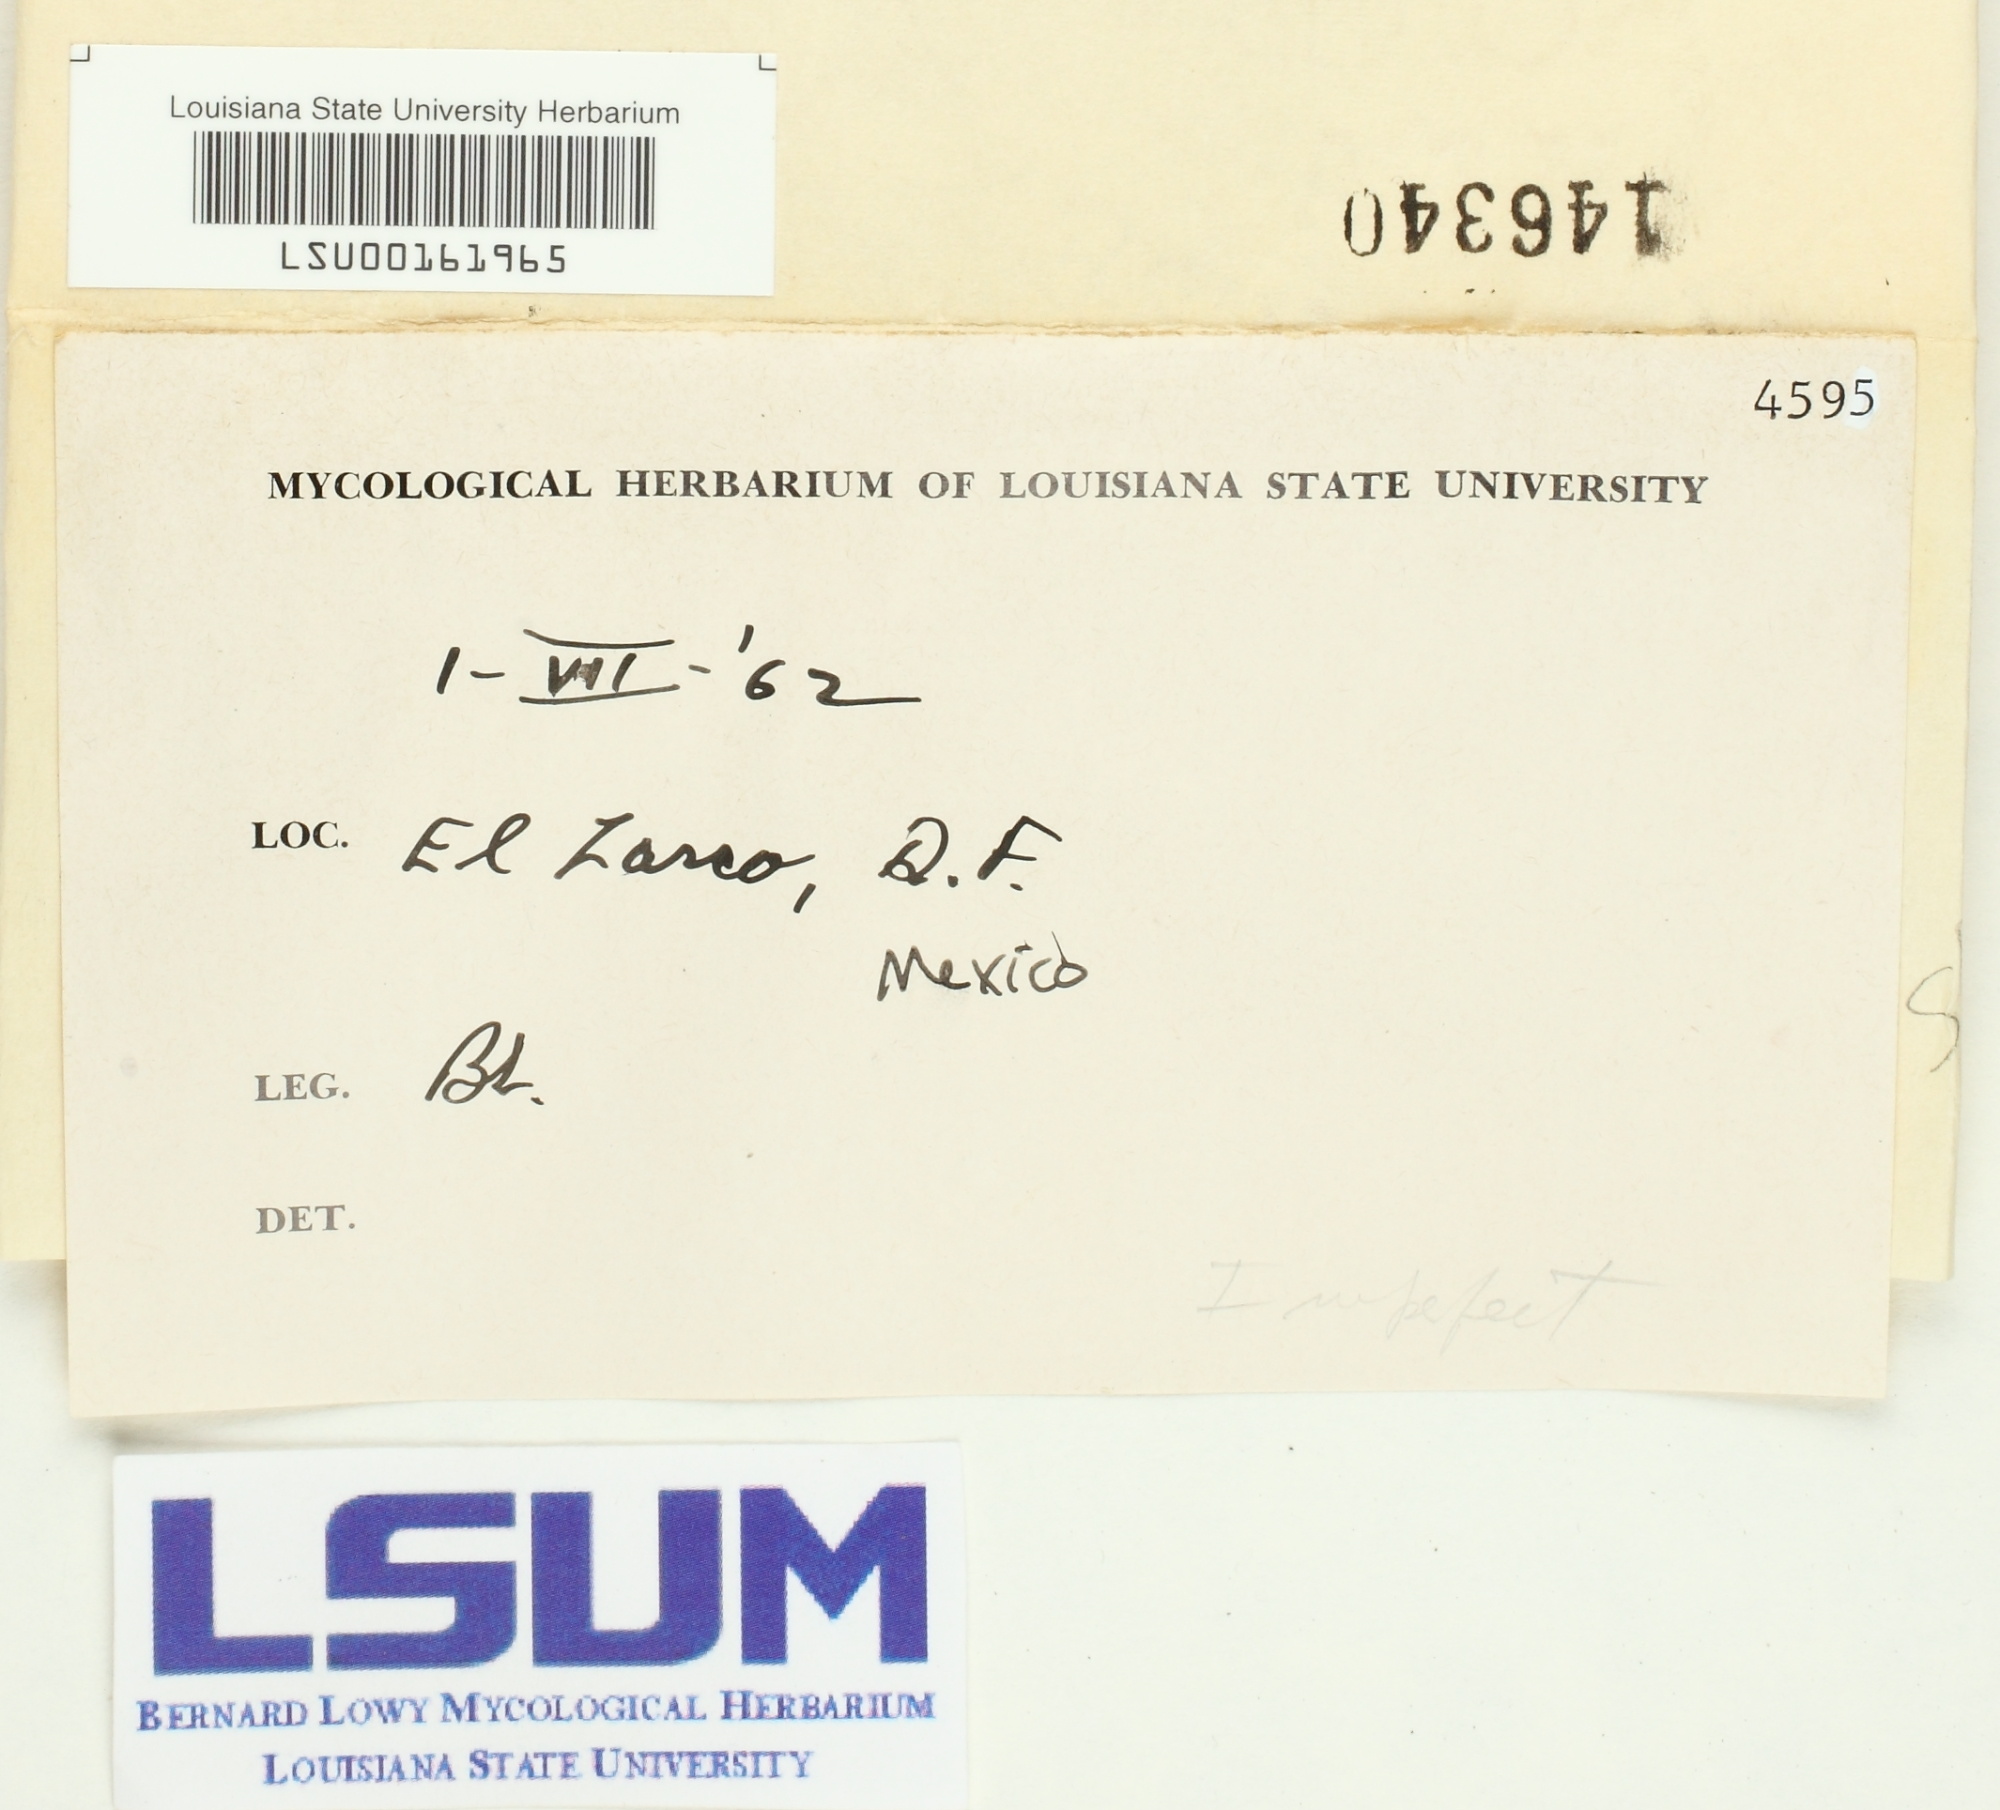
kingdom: Fungi
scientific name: Fungi
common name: Fungi
